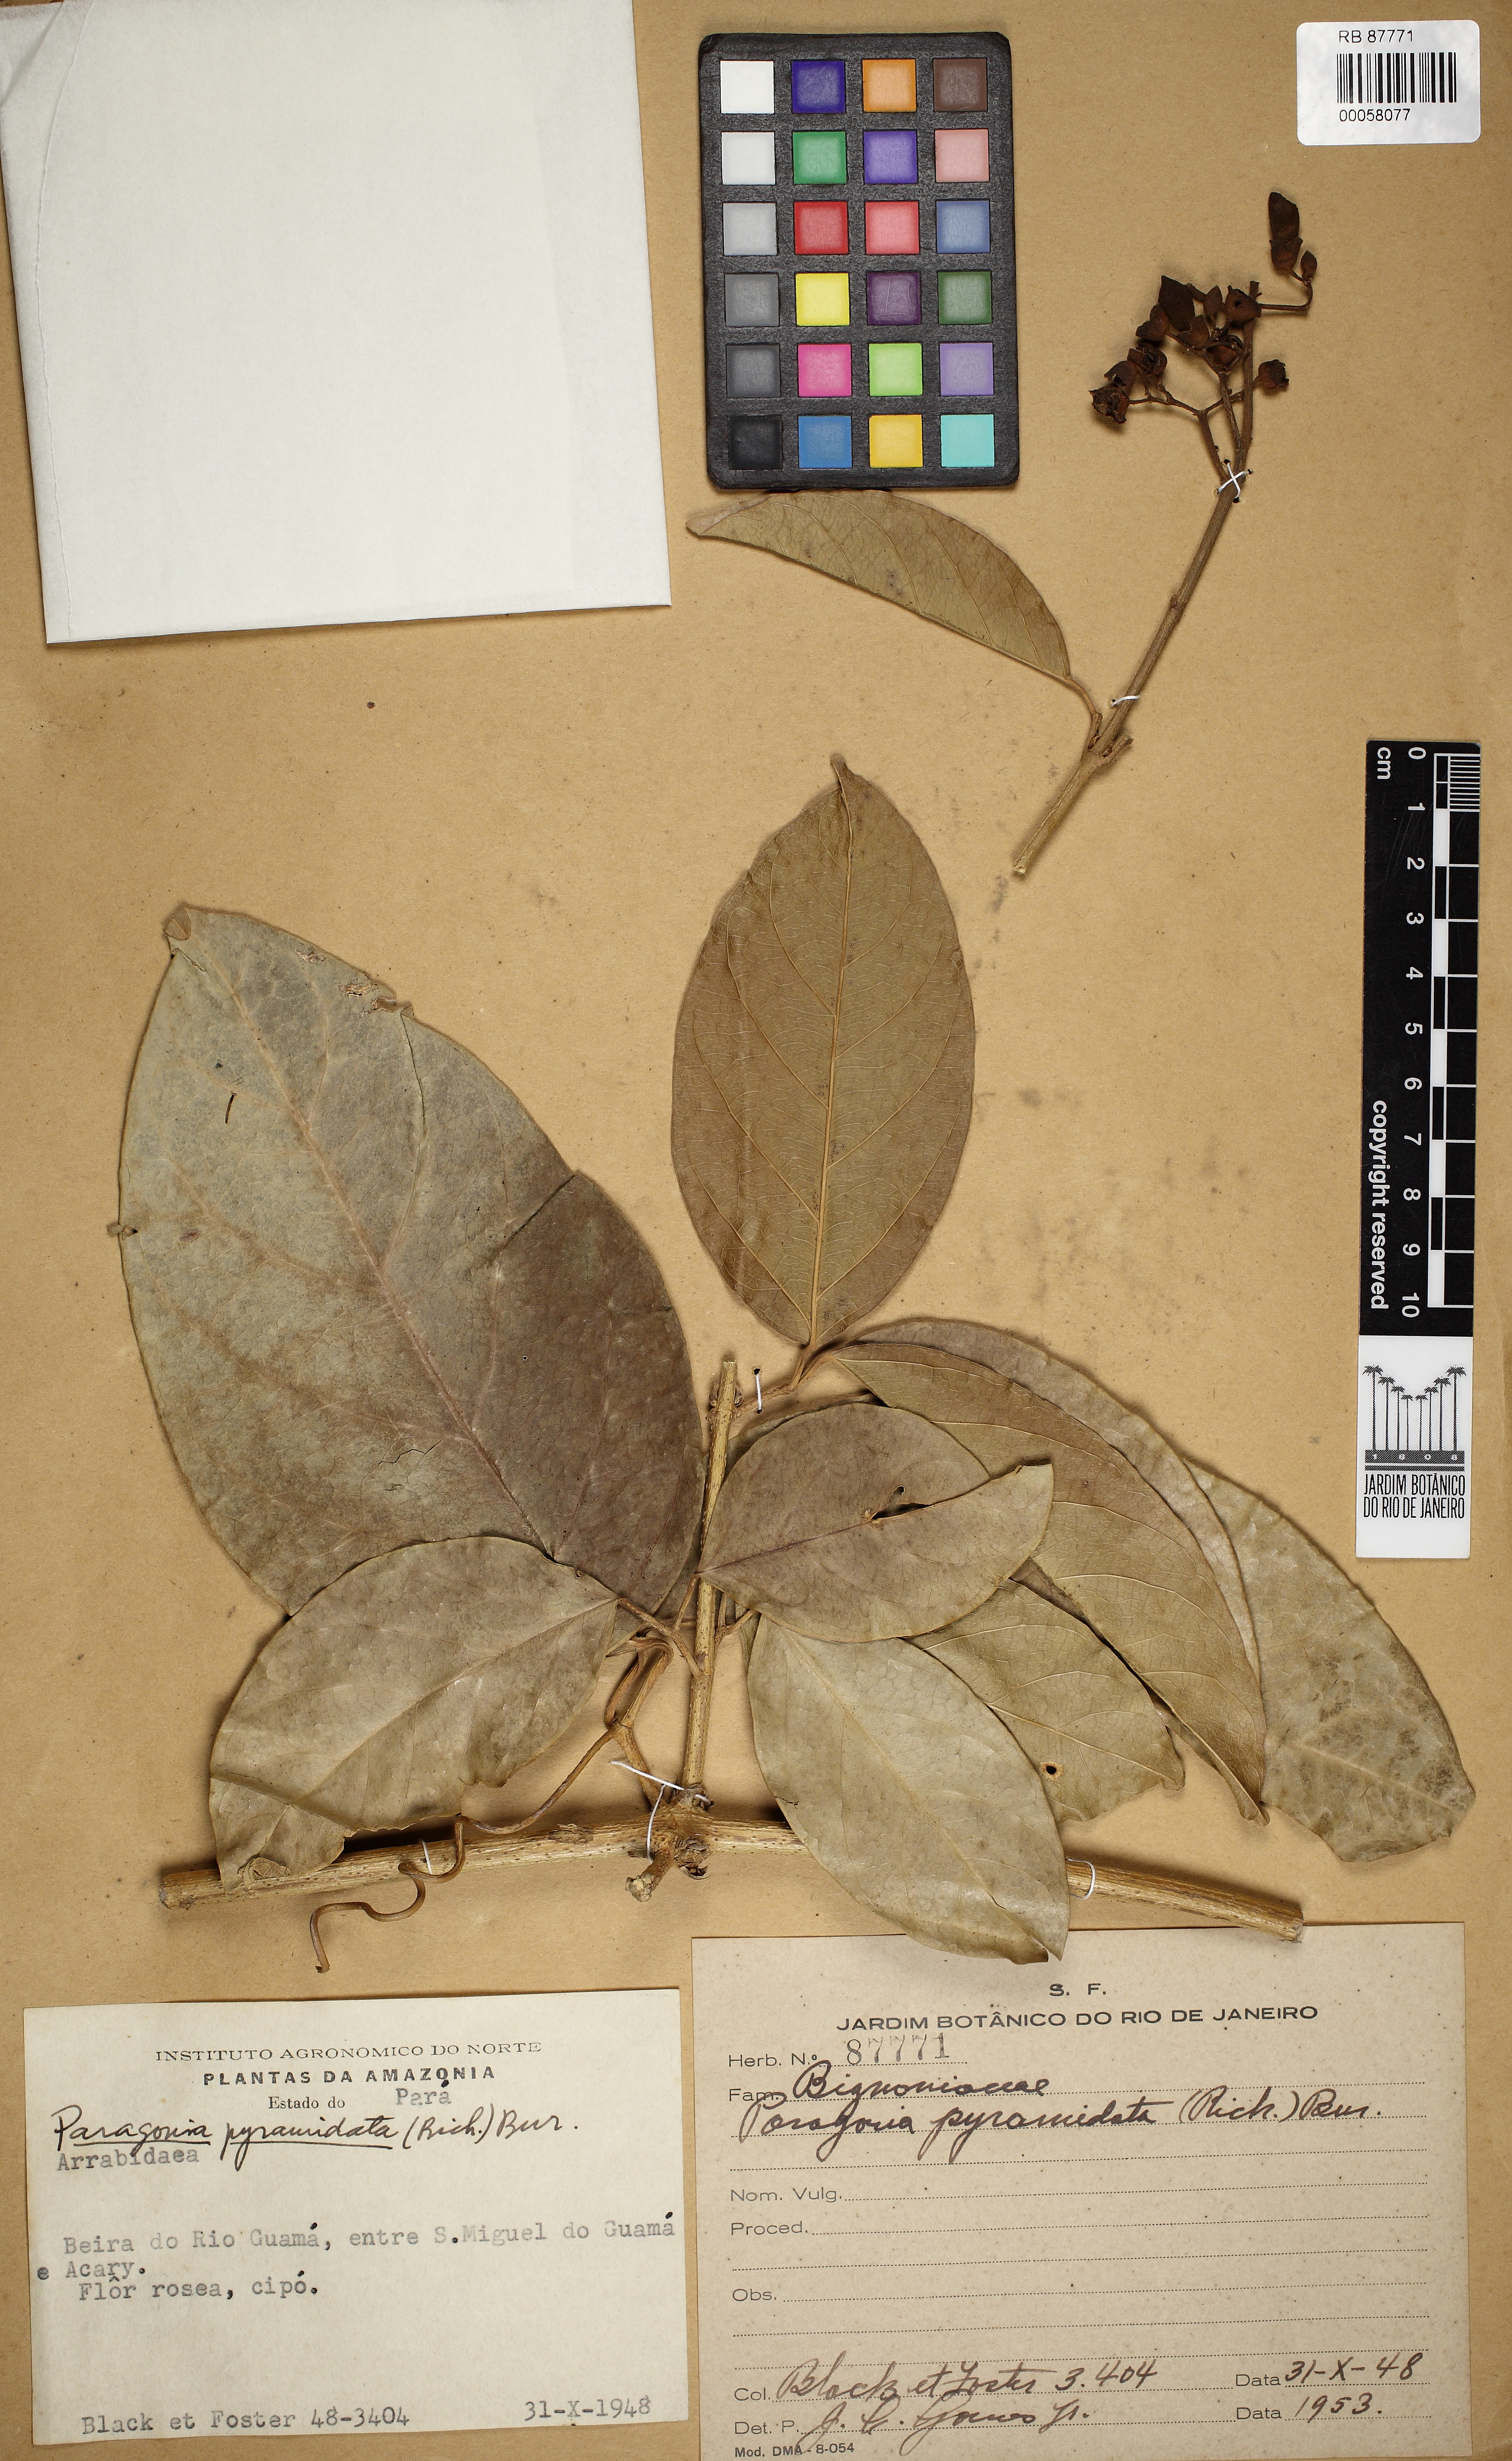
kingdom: Plantae
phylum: Tracheophyta
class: Magnoliopsida
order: Lamiales
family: Bignoniaceae
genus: Tanaecium
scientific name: Tanaecium pyramidatum
